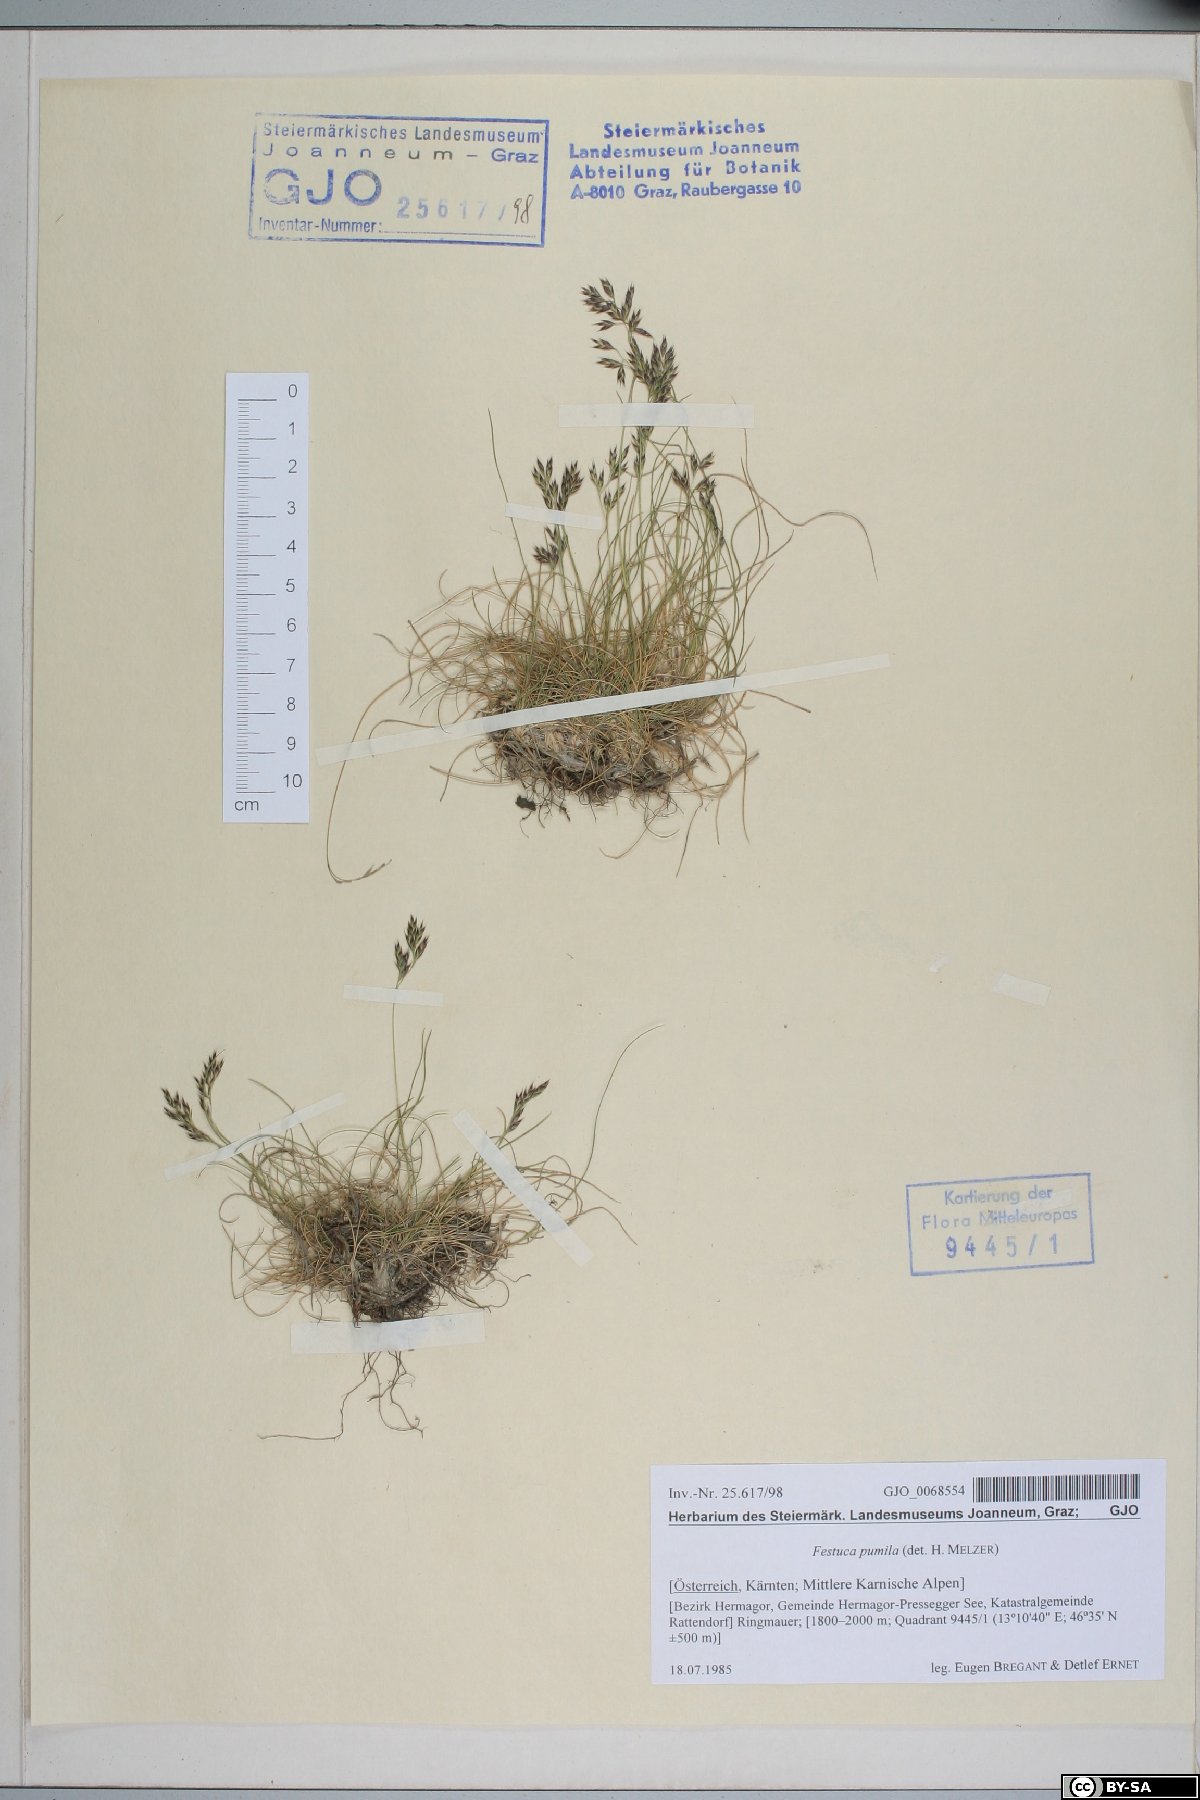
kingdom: Plantae
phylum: Tracheophyta
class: Liliopsida
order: Poales
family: Poaceae
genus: Festuca
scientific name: Festuca quadriflora
